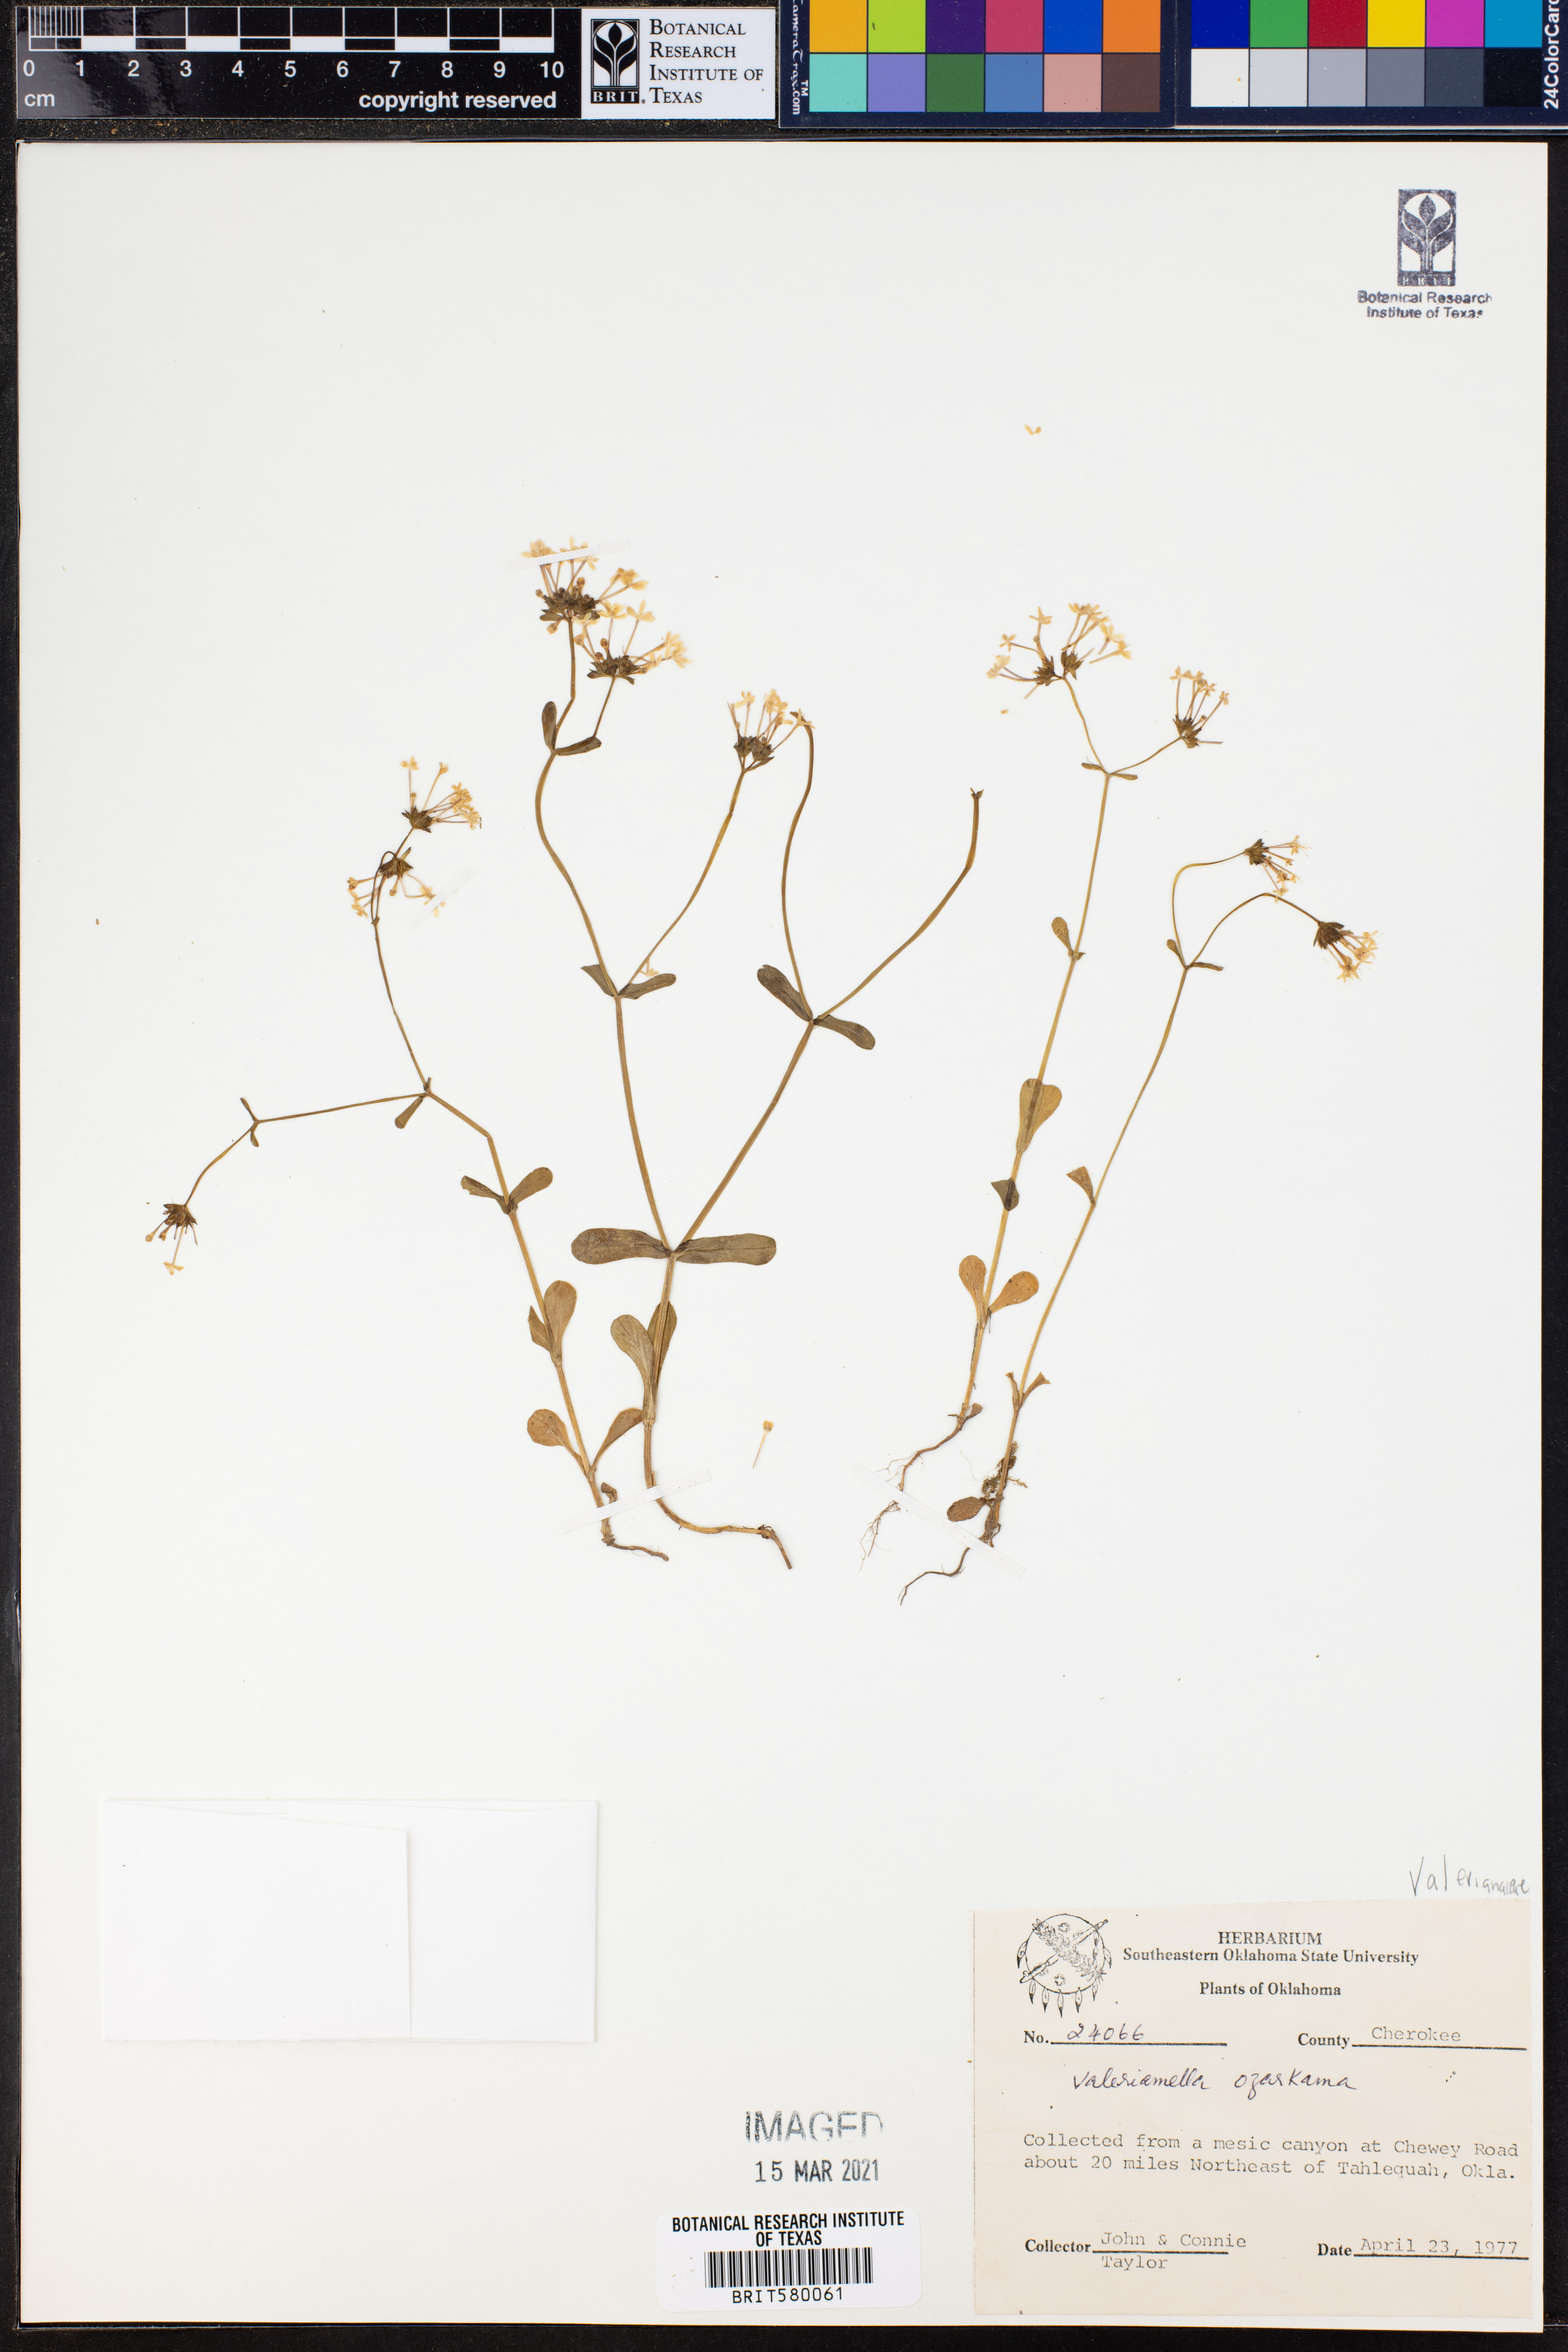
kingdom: Plantae
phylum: Tracheophyta
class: Magnoliopsida
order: Dipsacales
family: Caprifoliaceae
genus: Valerianella
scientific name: Valerianella ozarkana
